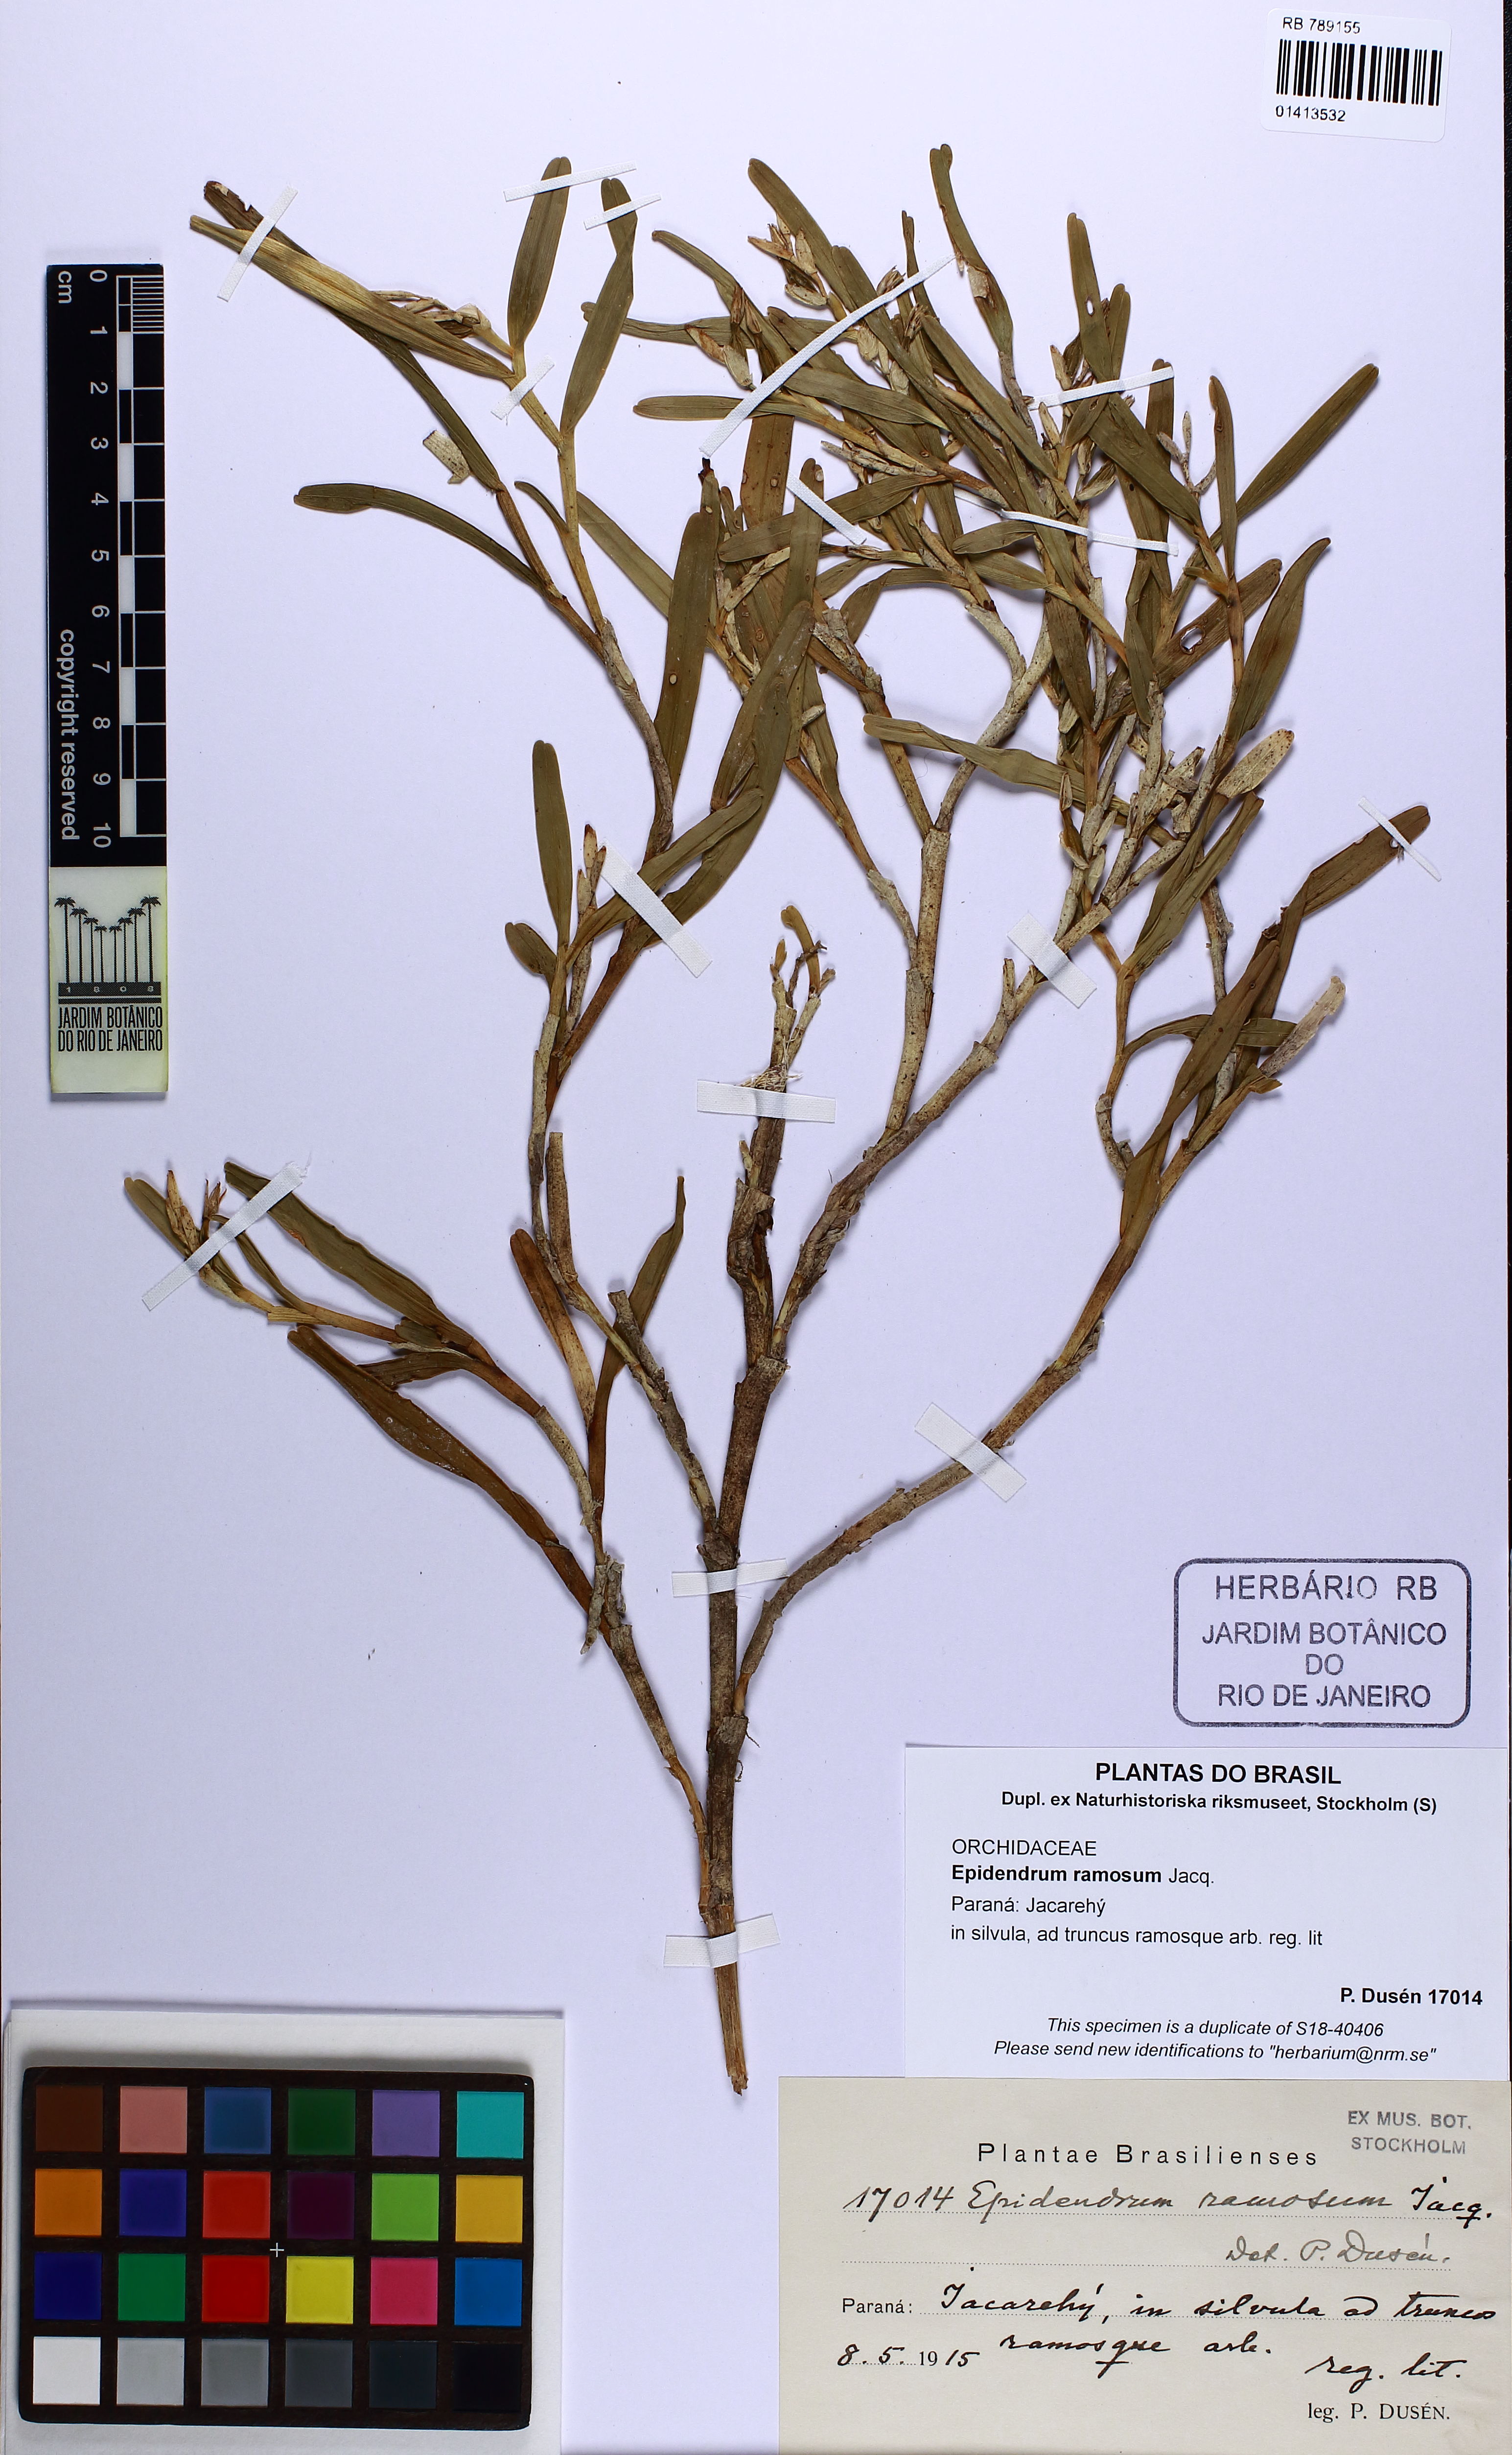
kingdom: Plantae
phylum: Tracheophyta
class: Liliopsida
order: Asparagales
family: Orchidaceae
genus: Epidendrum
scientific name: Epidendrum ramosum
